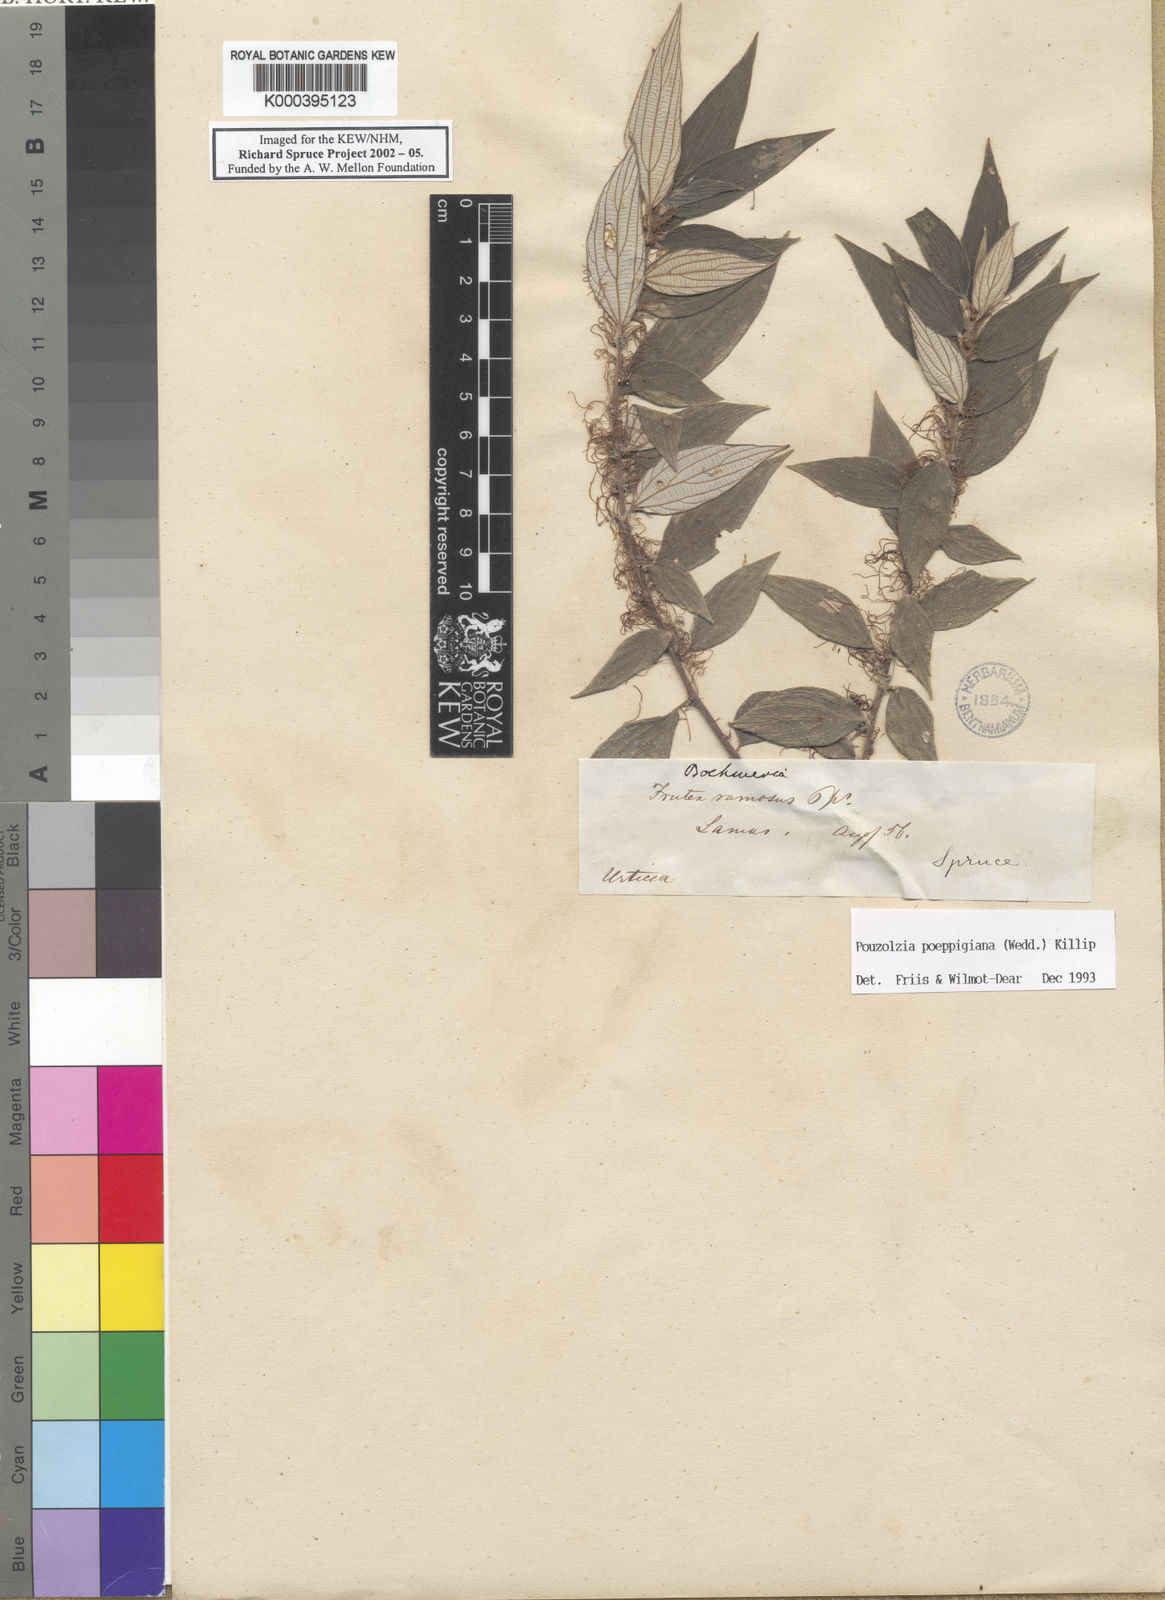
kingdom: Plantae
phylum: Tracheophyta
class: Magnoliopsida
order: Rosales
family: Urticaceae
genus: Pouzolzia
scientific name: Pouzolzia poeppigiana
